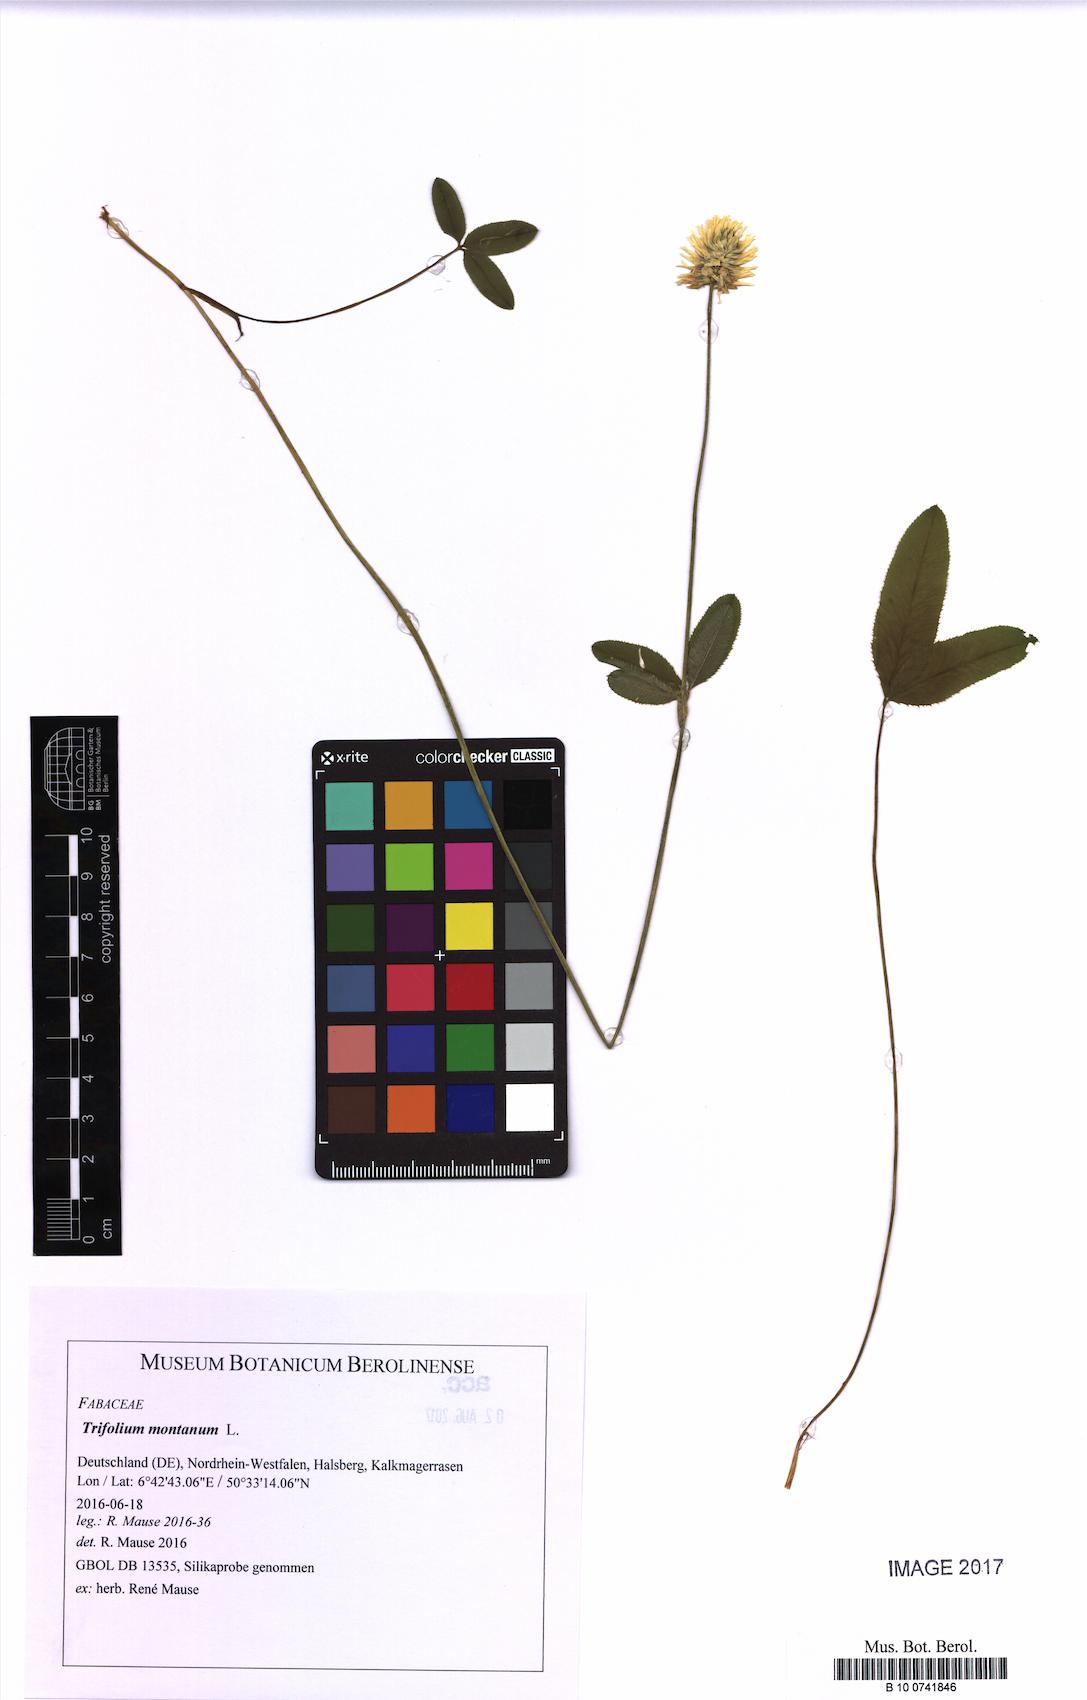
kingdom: Plantae
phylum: Tracheophyta
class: Magnoliopsida
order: Fabales
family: Fabaceae
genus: Trifolium
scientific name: Trifolium montanum
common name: Mountain clover
